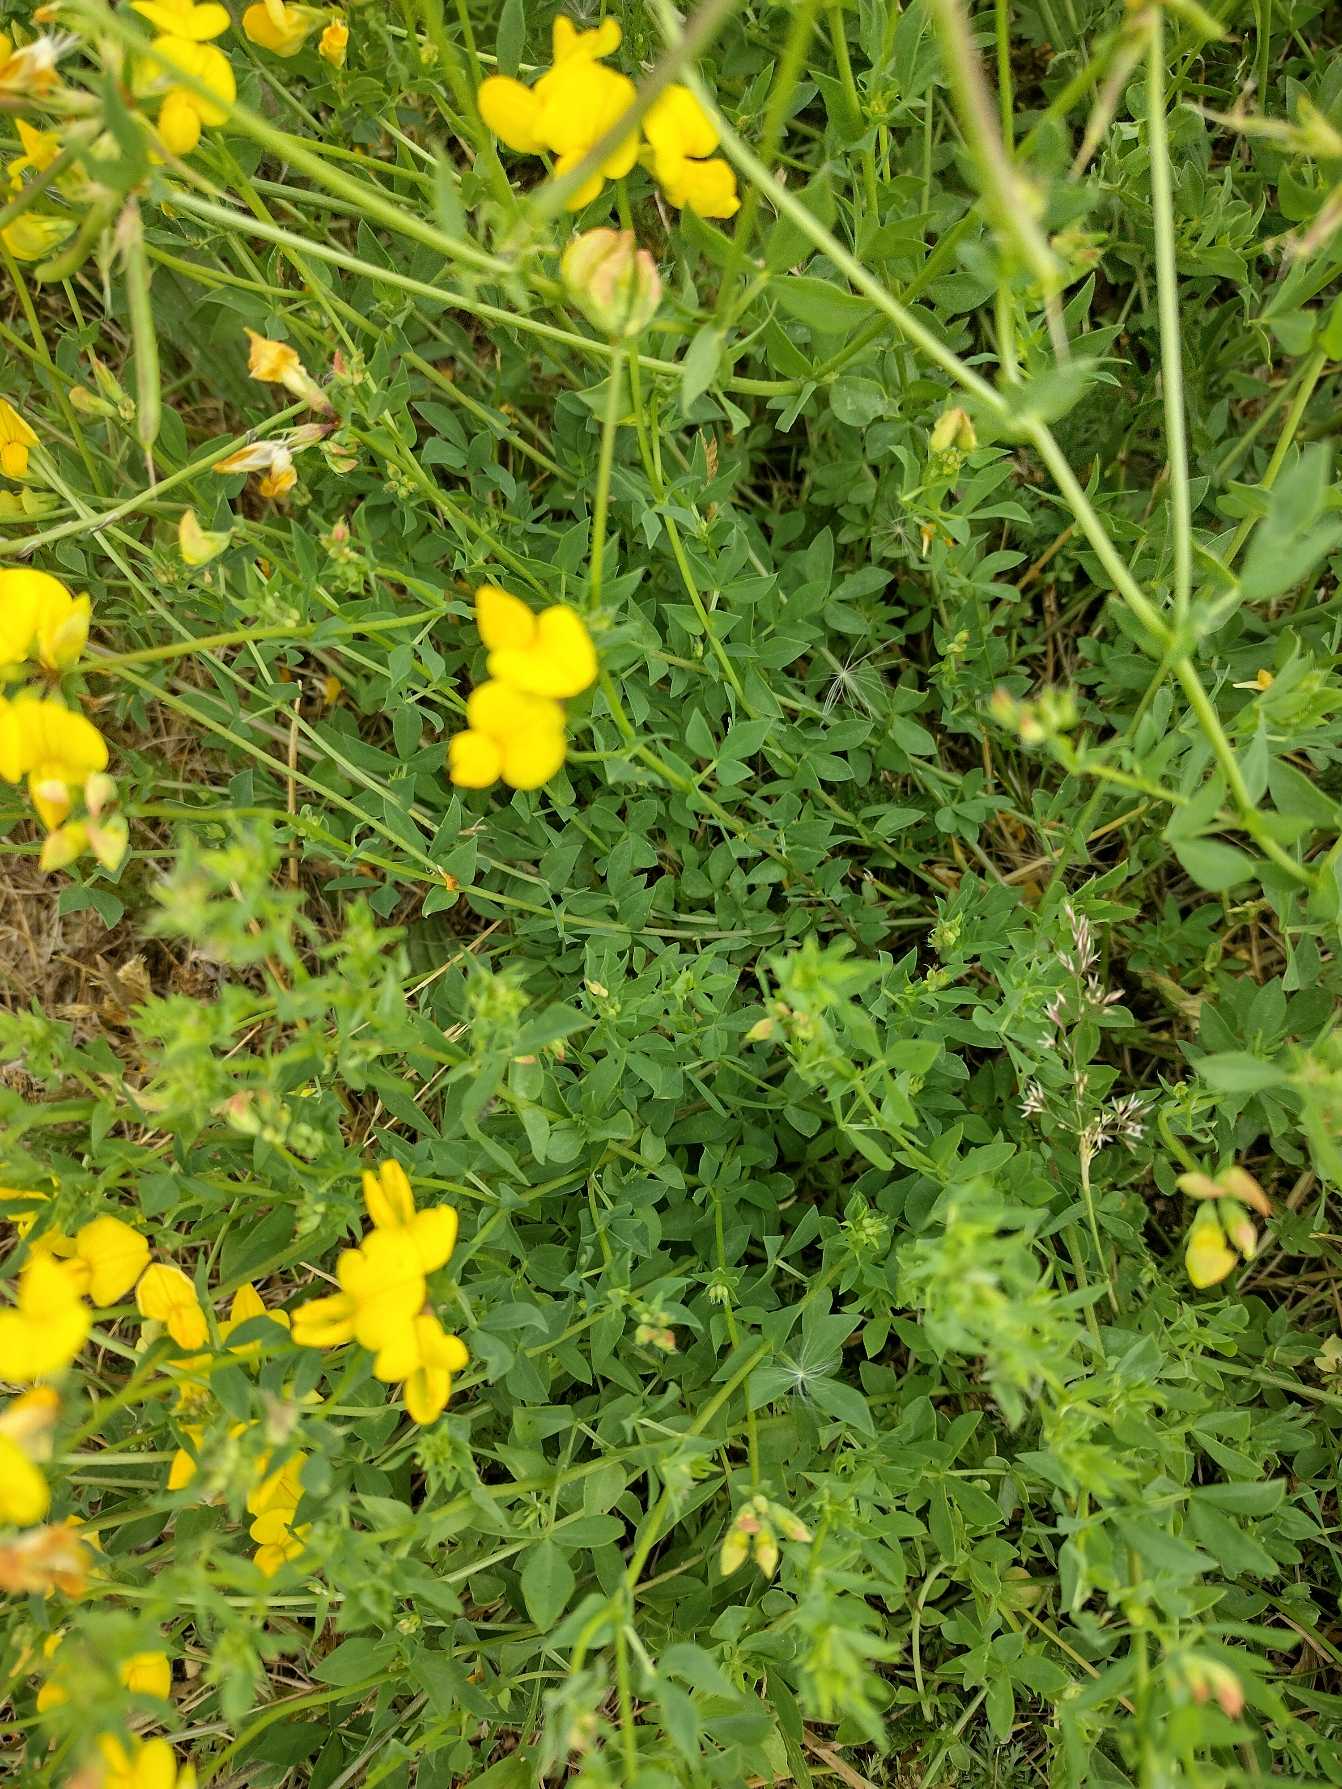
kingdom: Plantae
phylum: Tracheophyta
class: Magnoliopsida
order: Fabales
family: Fabaceae
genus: Lotus
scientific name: Lotus corniculatus
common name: Almindelig kællingetand
